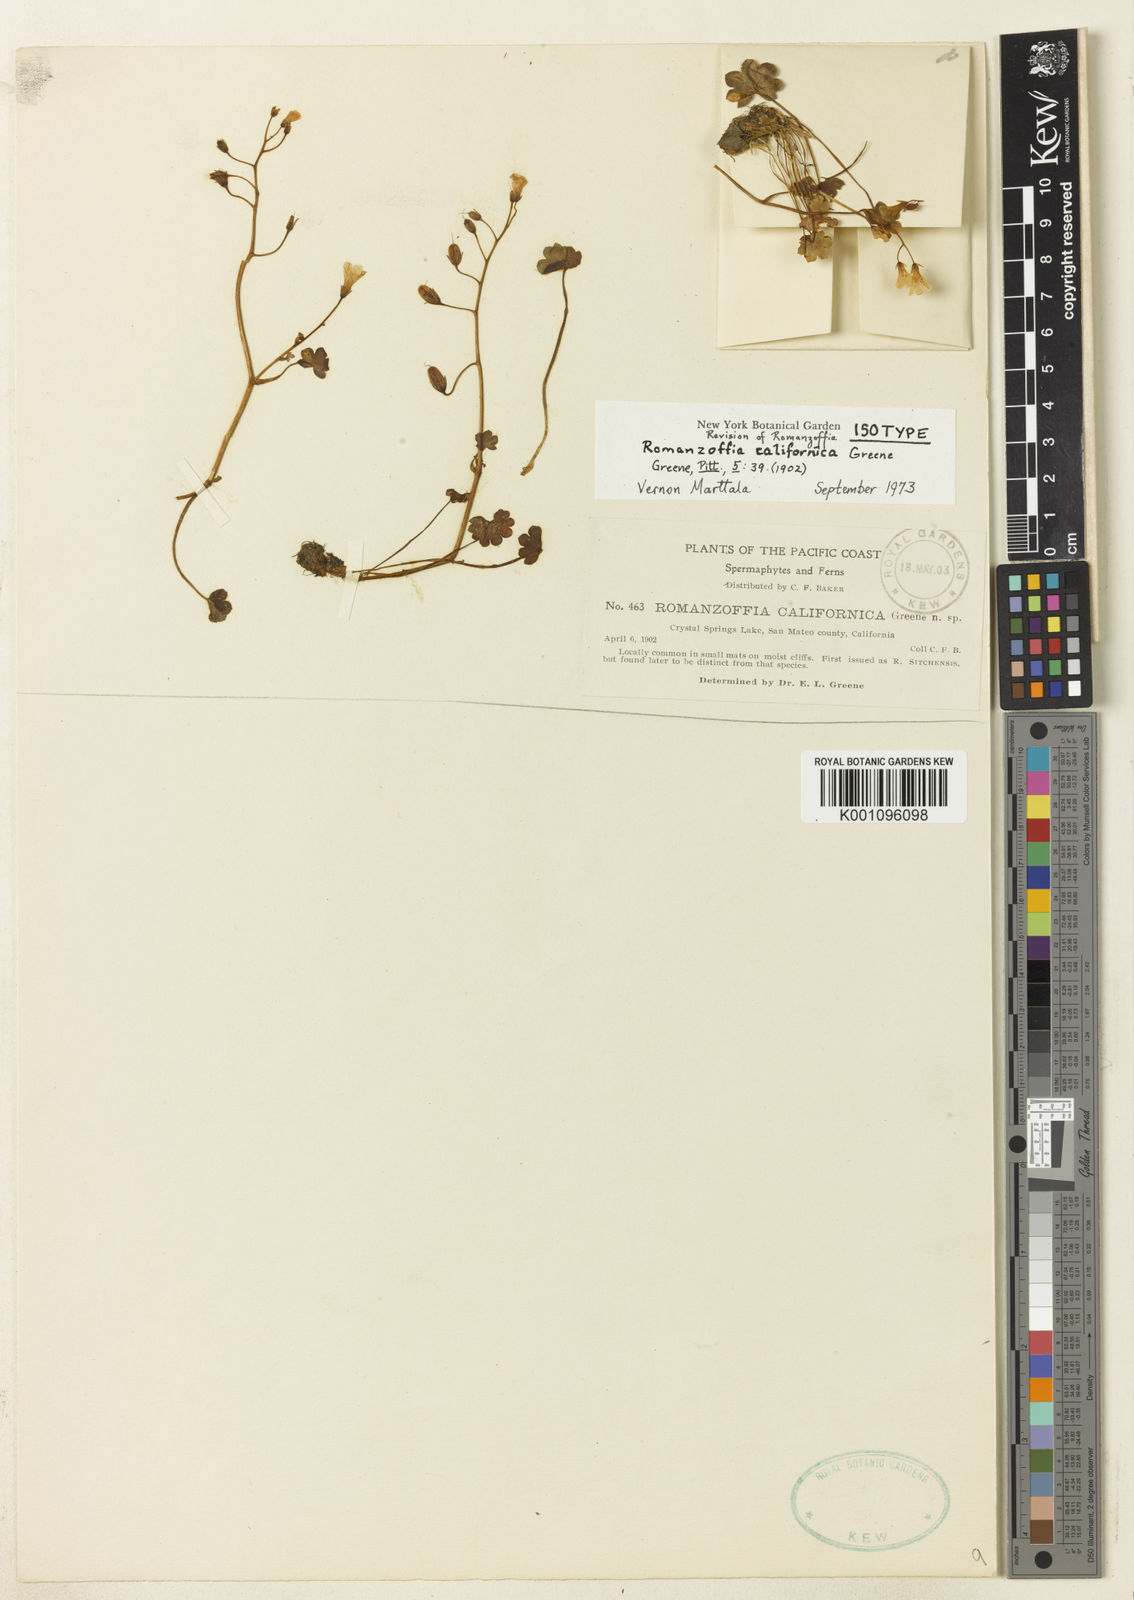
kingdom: Plantae
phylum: Tracheophyta
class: Magnoliopsida
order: Boraginales
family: Hydrophyllaceae
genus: Romanzoffia
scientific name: Romanzoffia californica
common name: California mistmaiden
